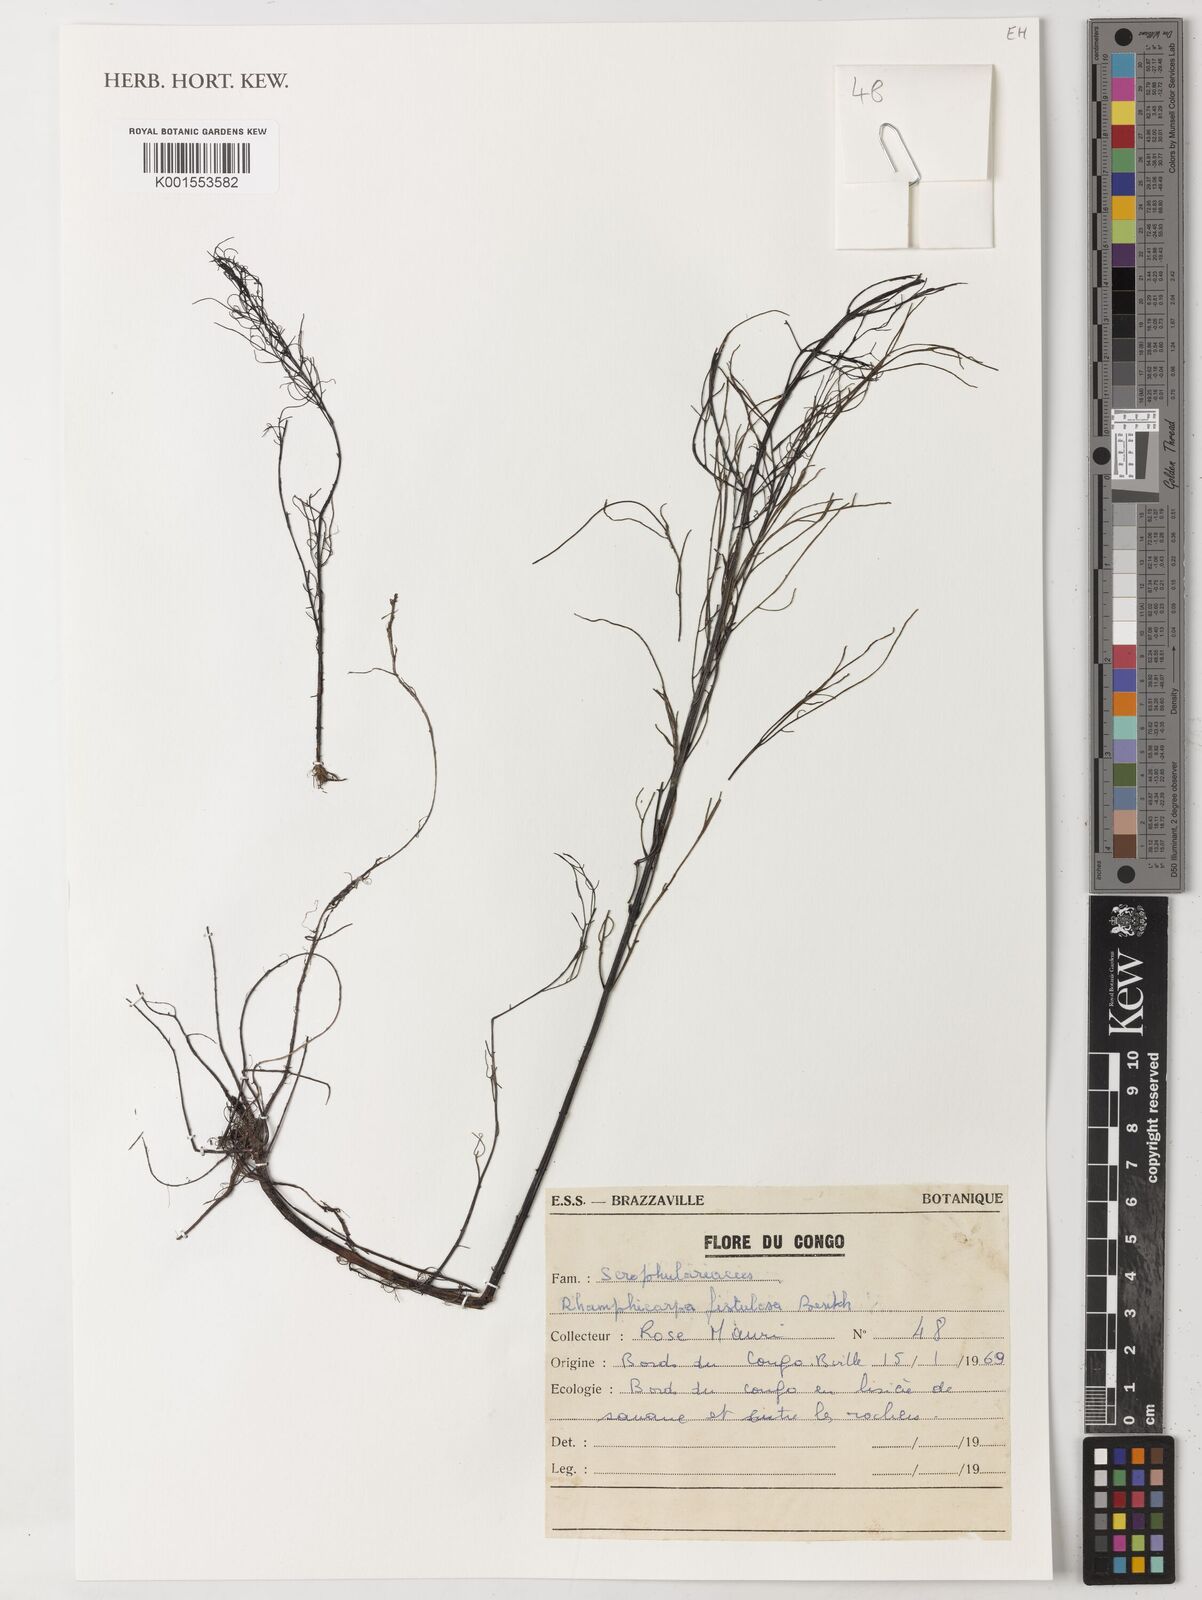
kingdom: Plantae
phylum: Tracheophyta
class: Magnoliopsida
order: Lamiales
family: Orobanchaceae
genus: Rhamphicarpa
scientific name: Rhamphicarpa fistulosa
